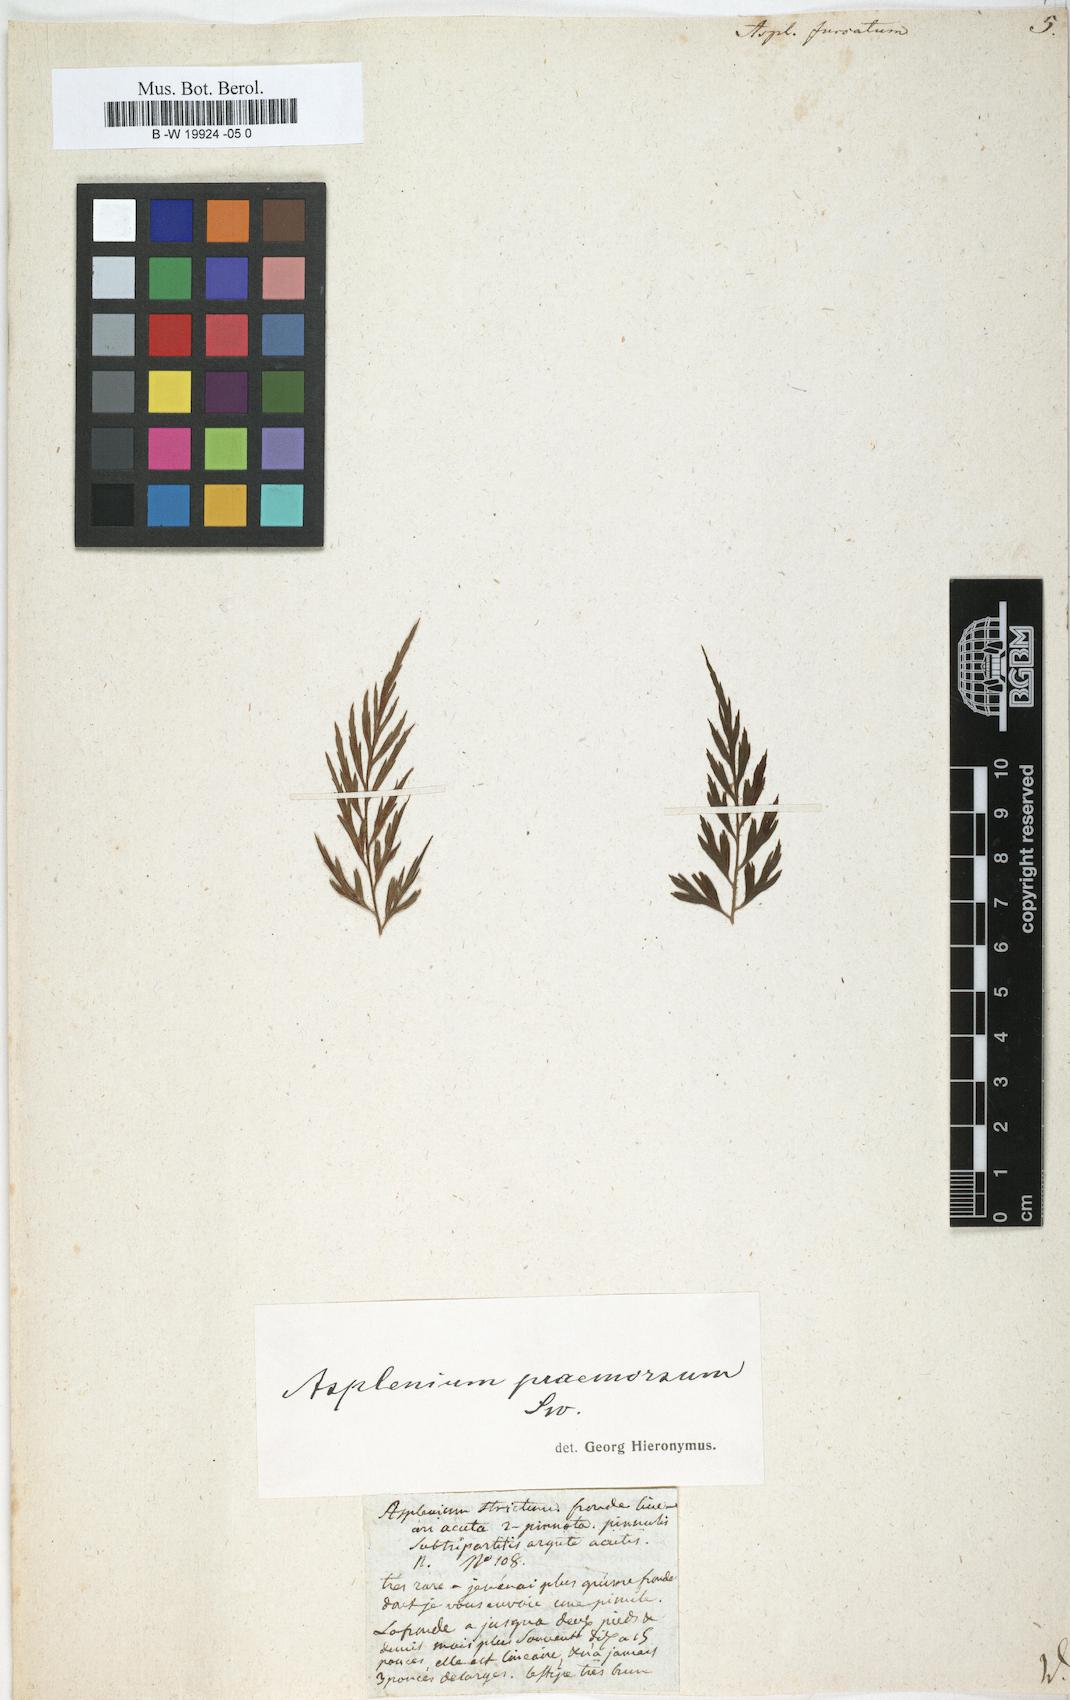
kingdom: Plantae
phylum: Tracheophyta
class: Polypodiopsida
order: Polypodiales
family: Aspleniaceae
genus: Asplenium
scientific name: Asplenium furcatum
